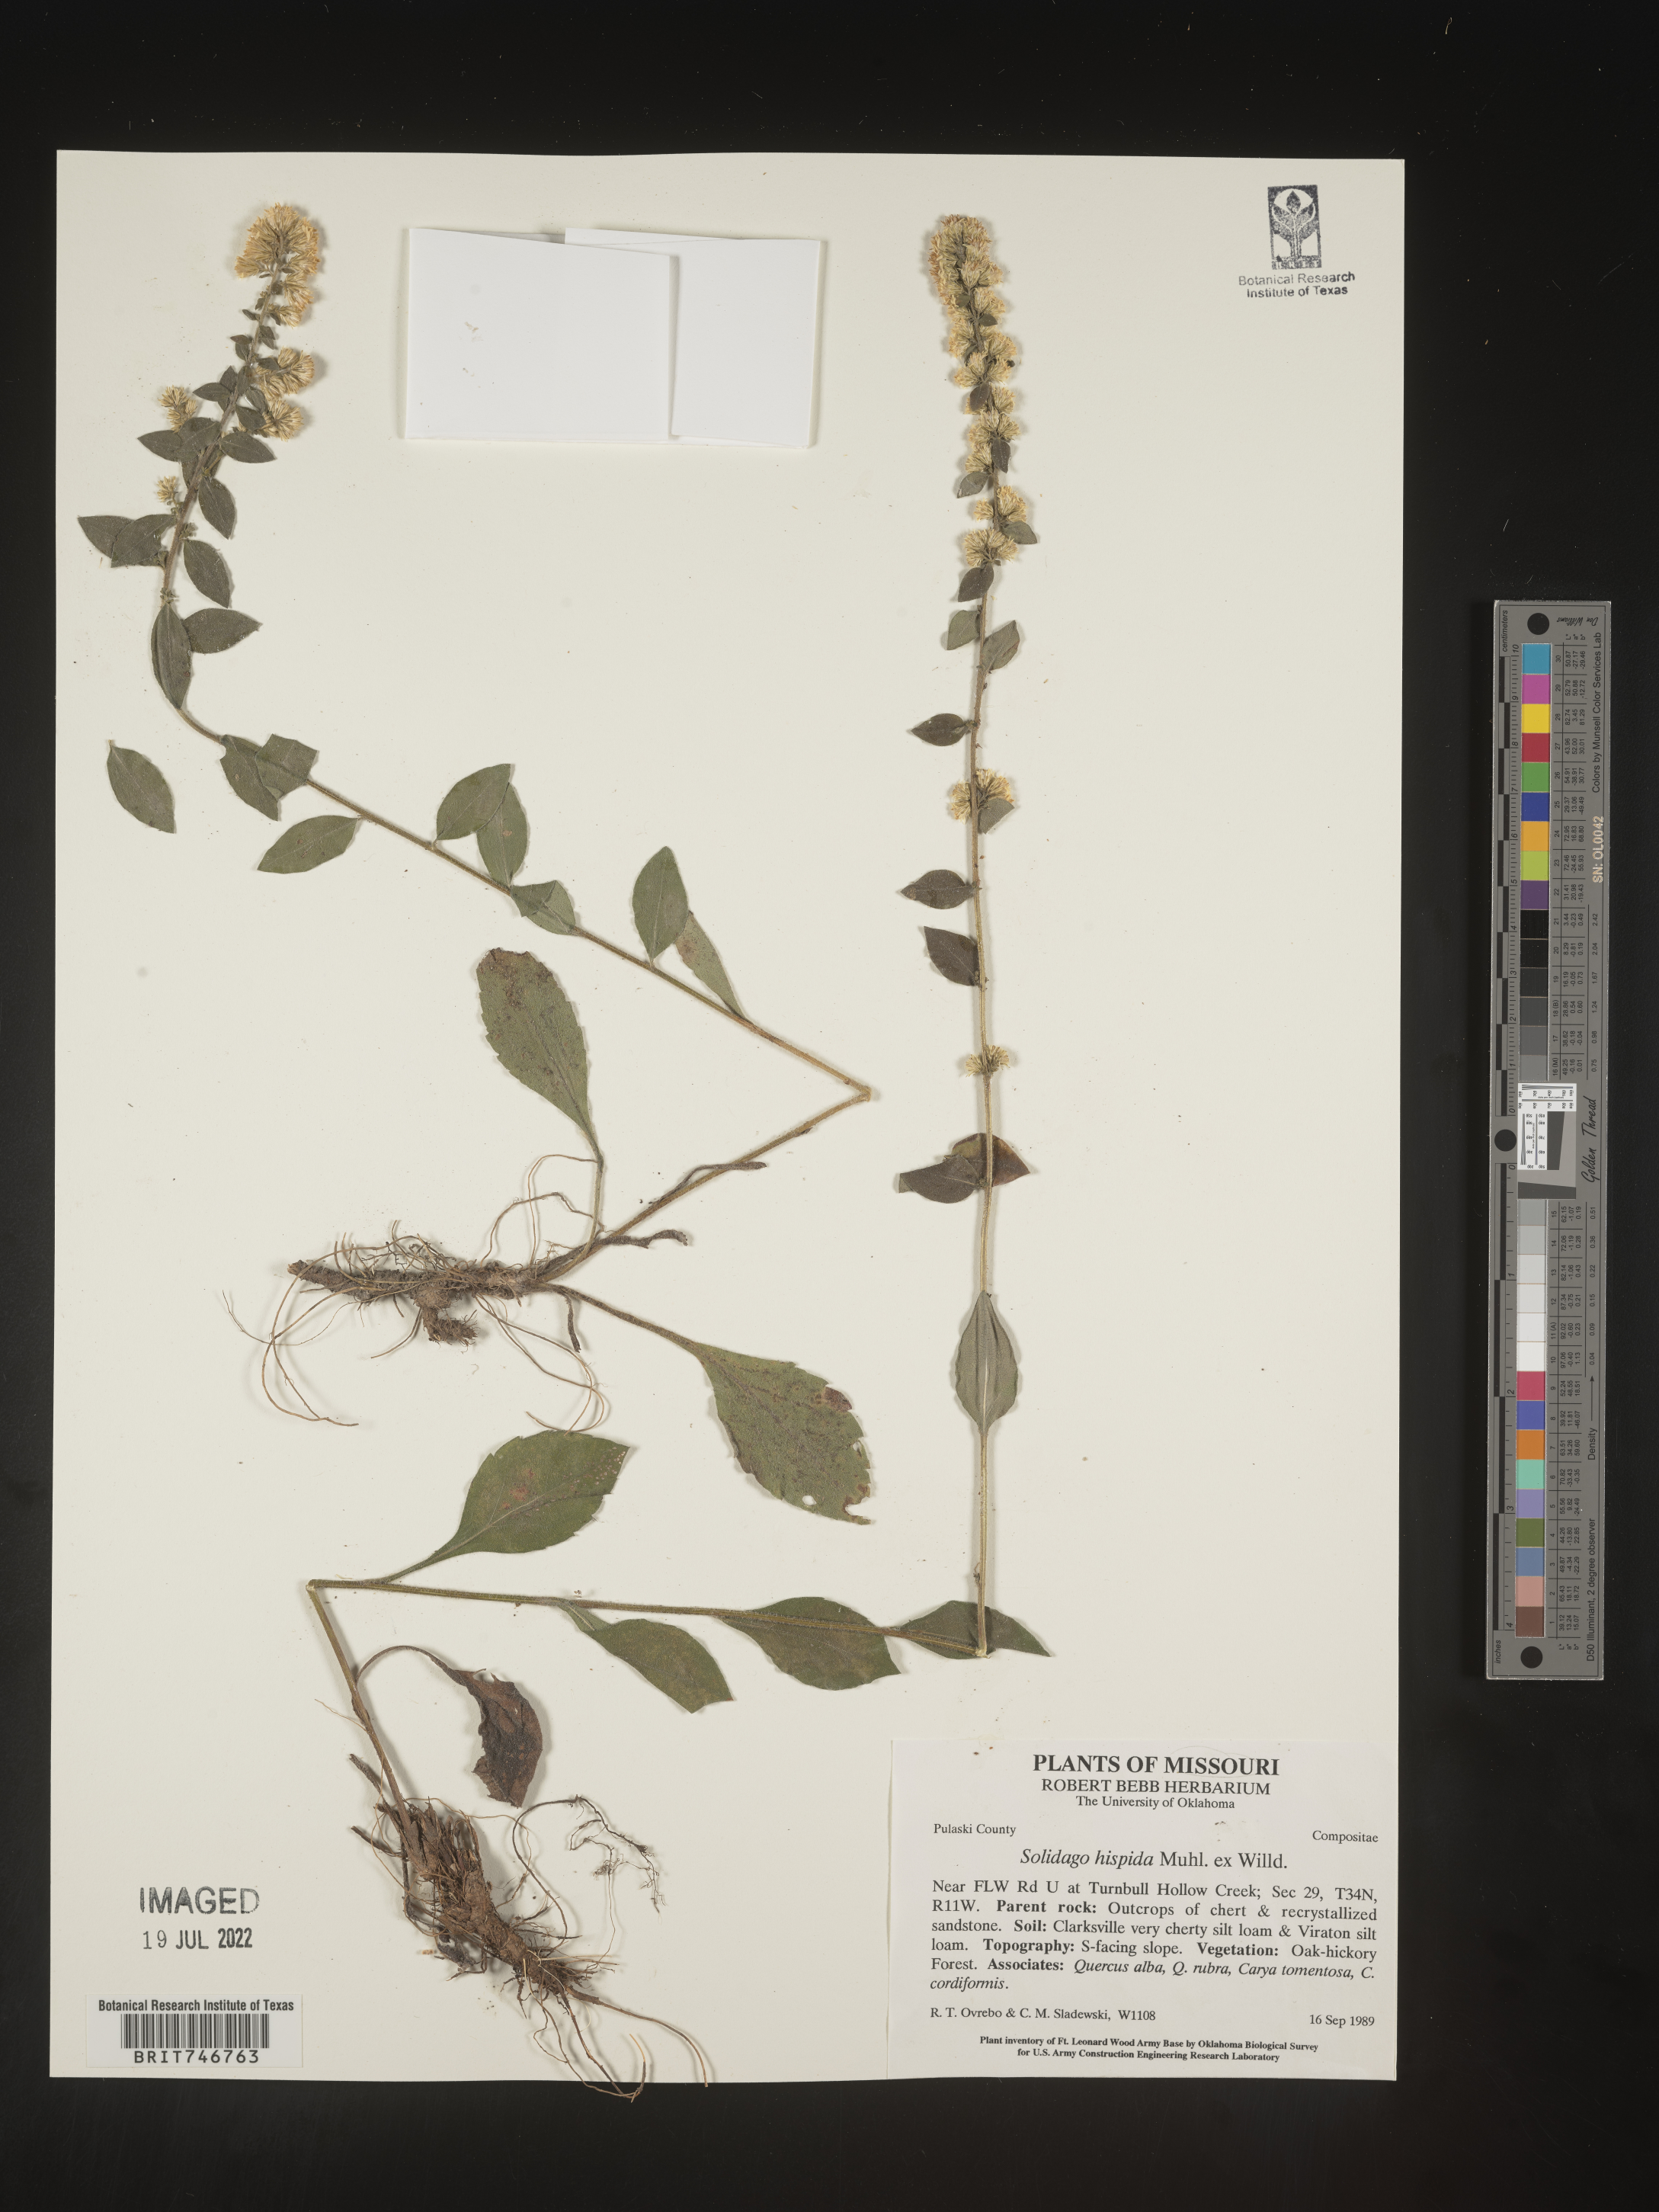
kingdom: Plantae
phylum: Tracheophyta
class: Magnoliopsida
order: Asterales
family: Asteraceae
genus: Solidago
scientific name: Solidago hispida
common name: Hairy goldenrod
